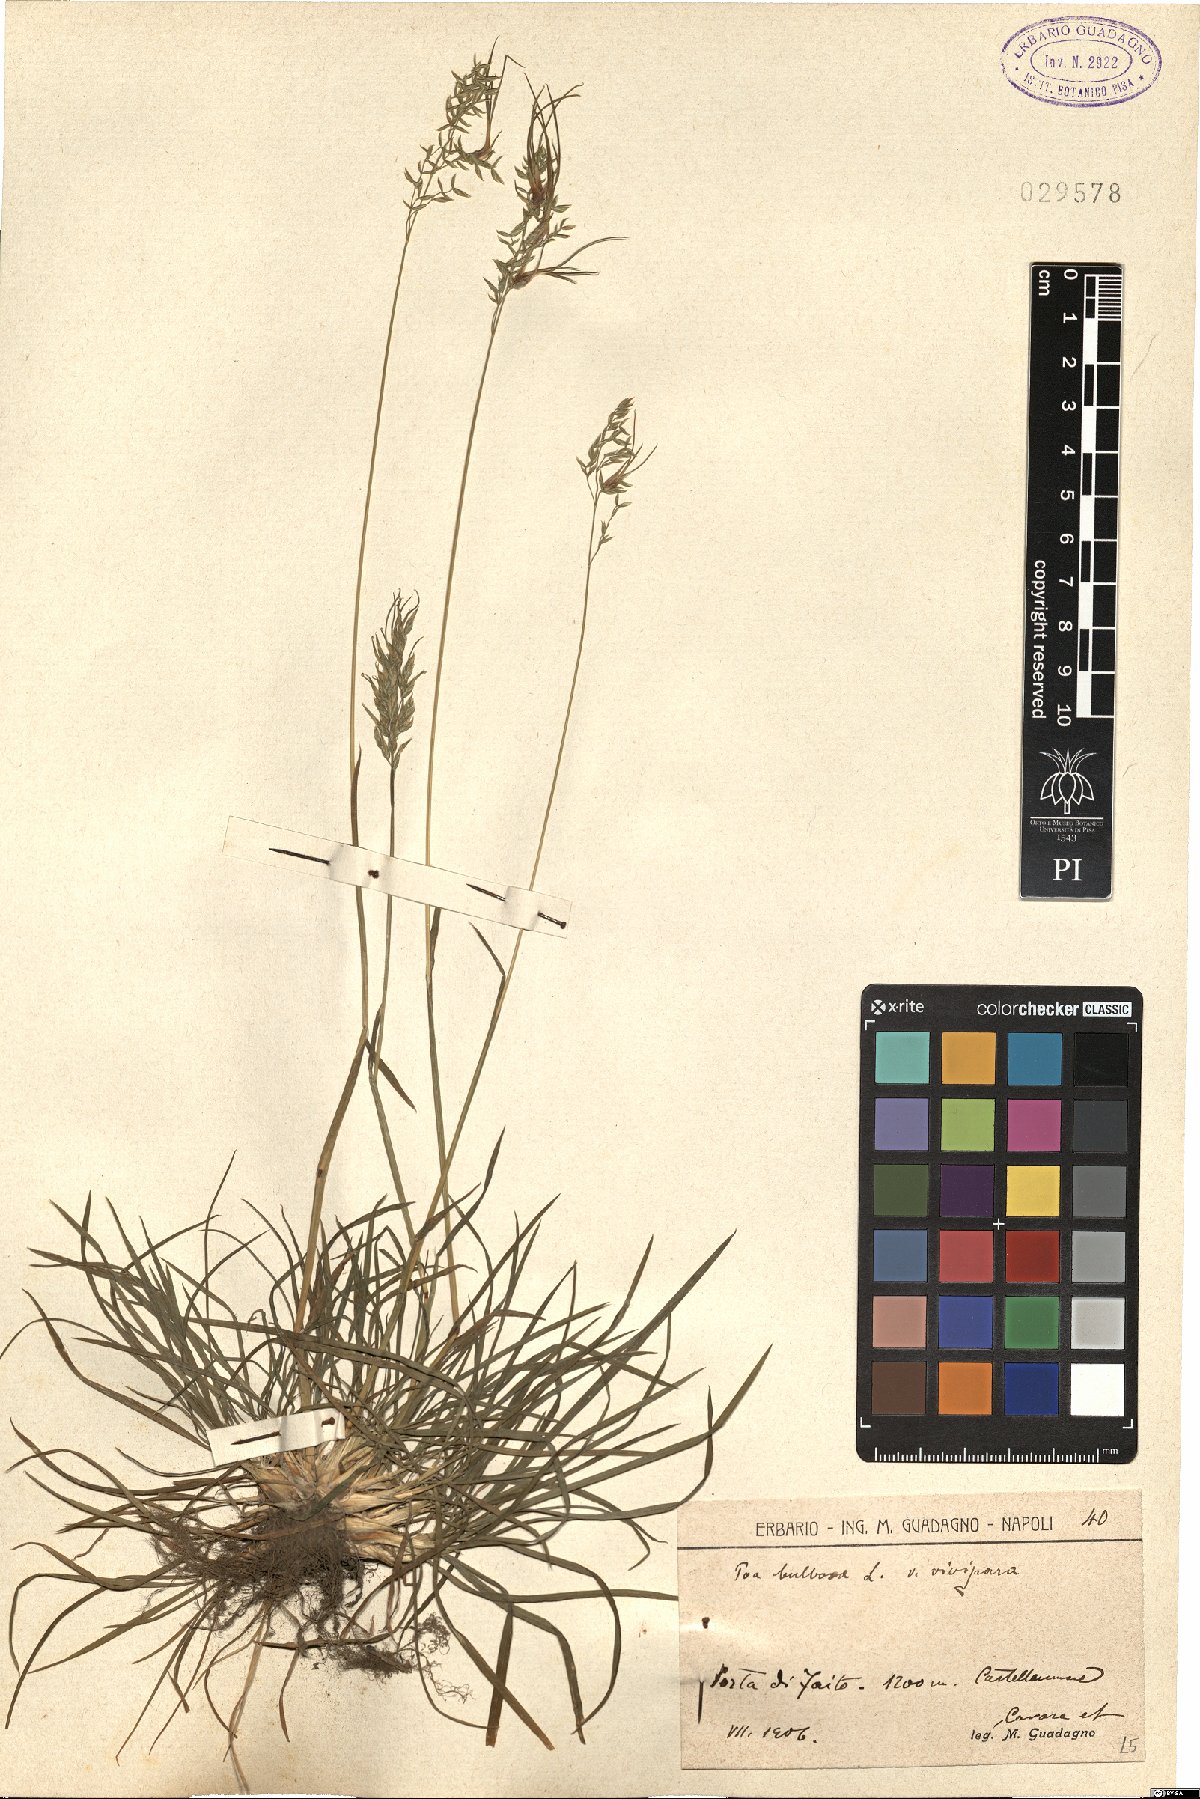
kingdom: Plantae
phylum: Tracheophyta
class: Liliopsida
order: Poales
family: Poaceae
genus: Poa
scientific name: Poa bulbosa
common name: Bulbous bluegrass
